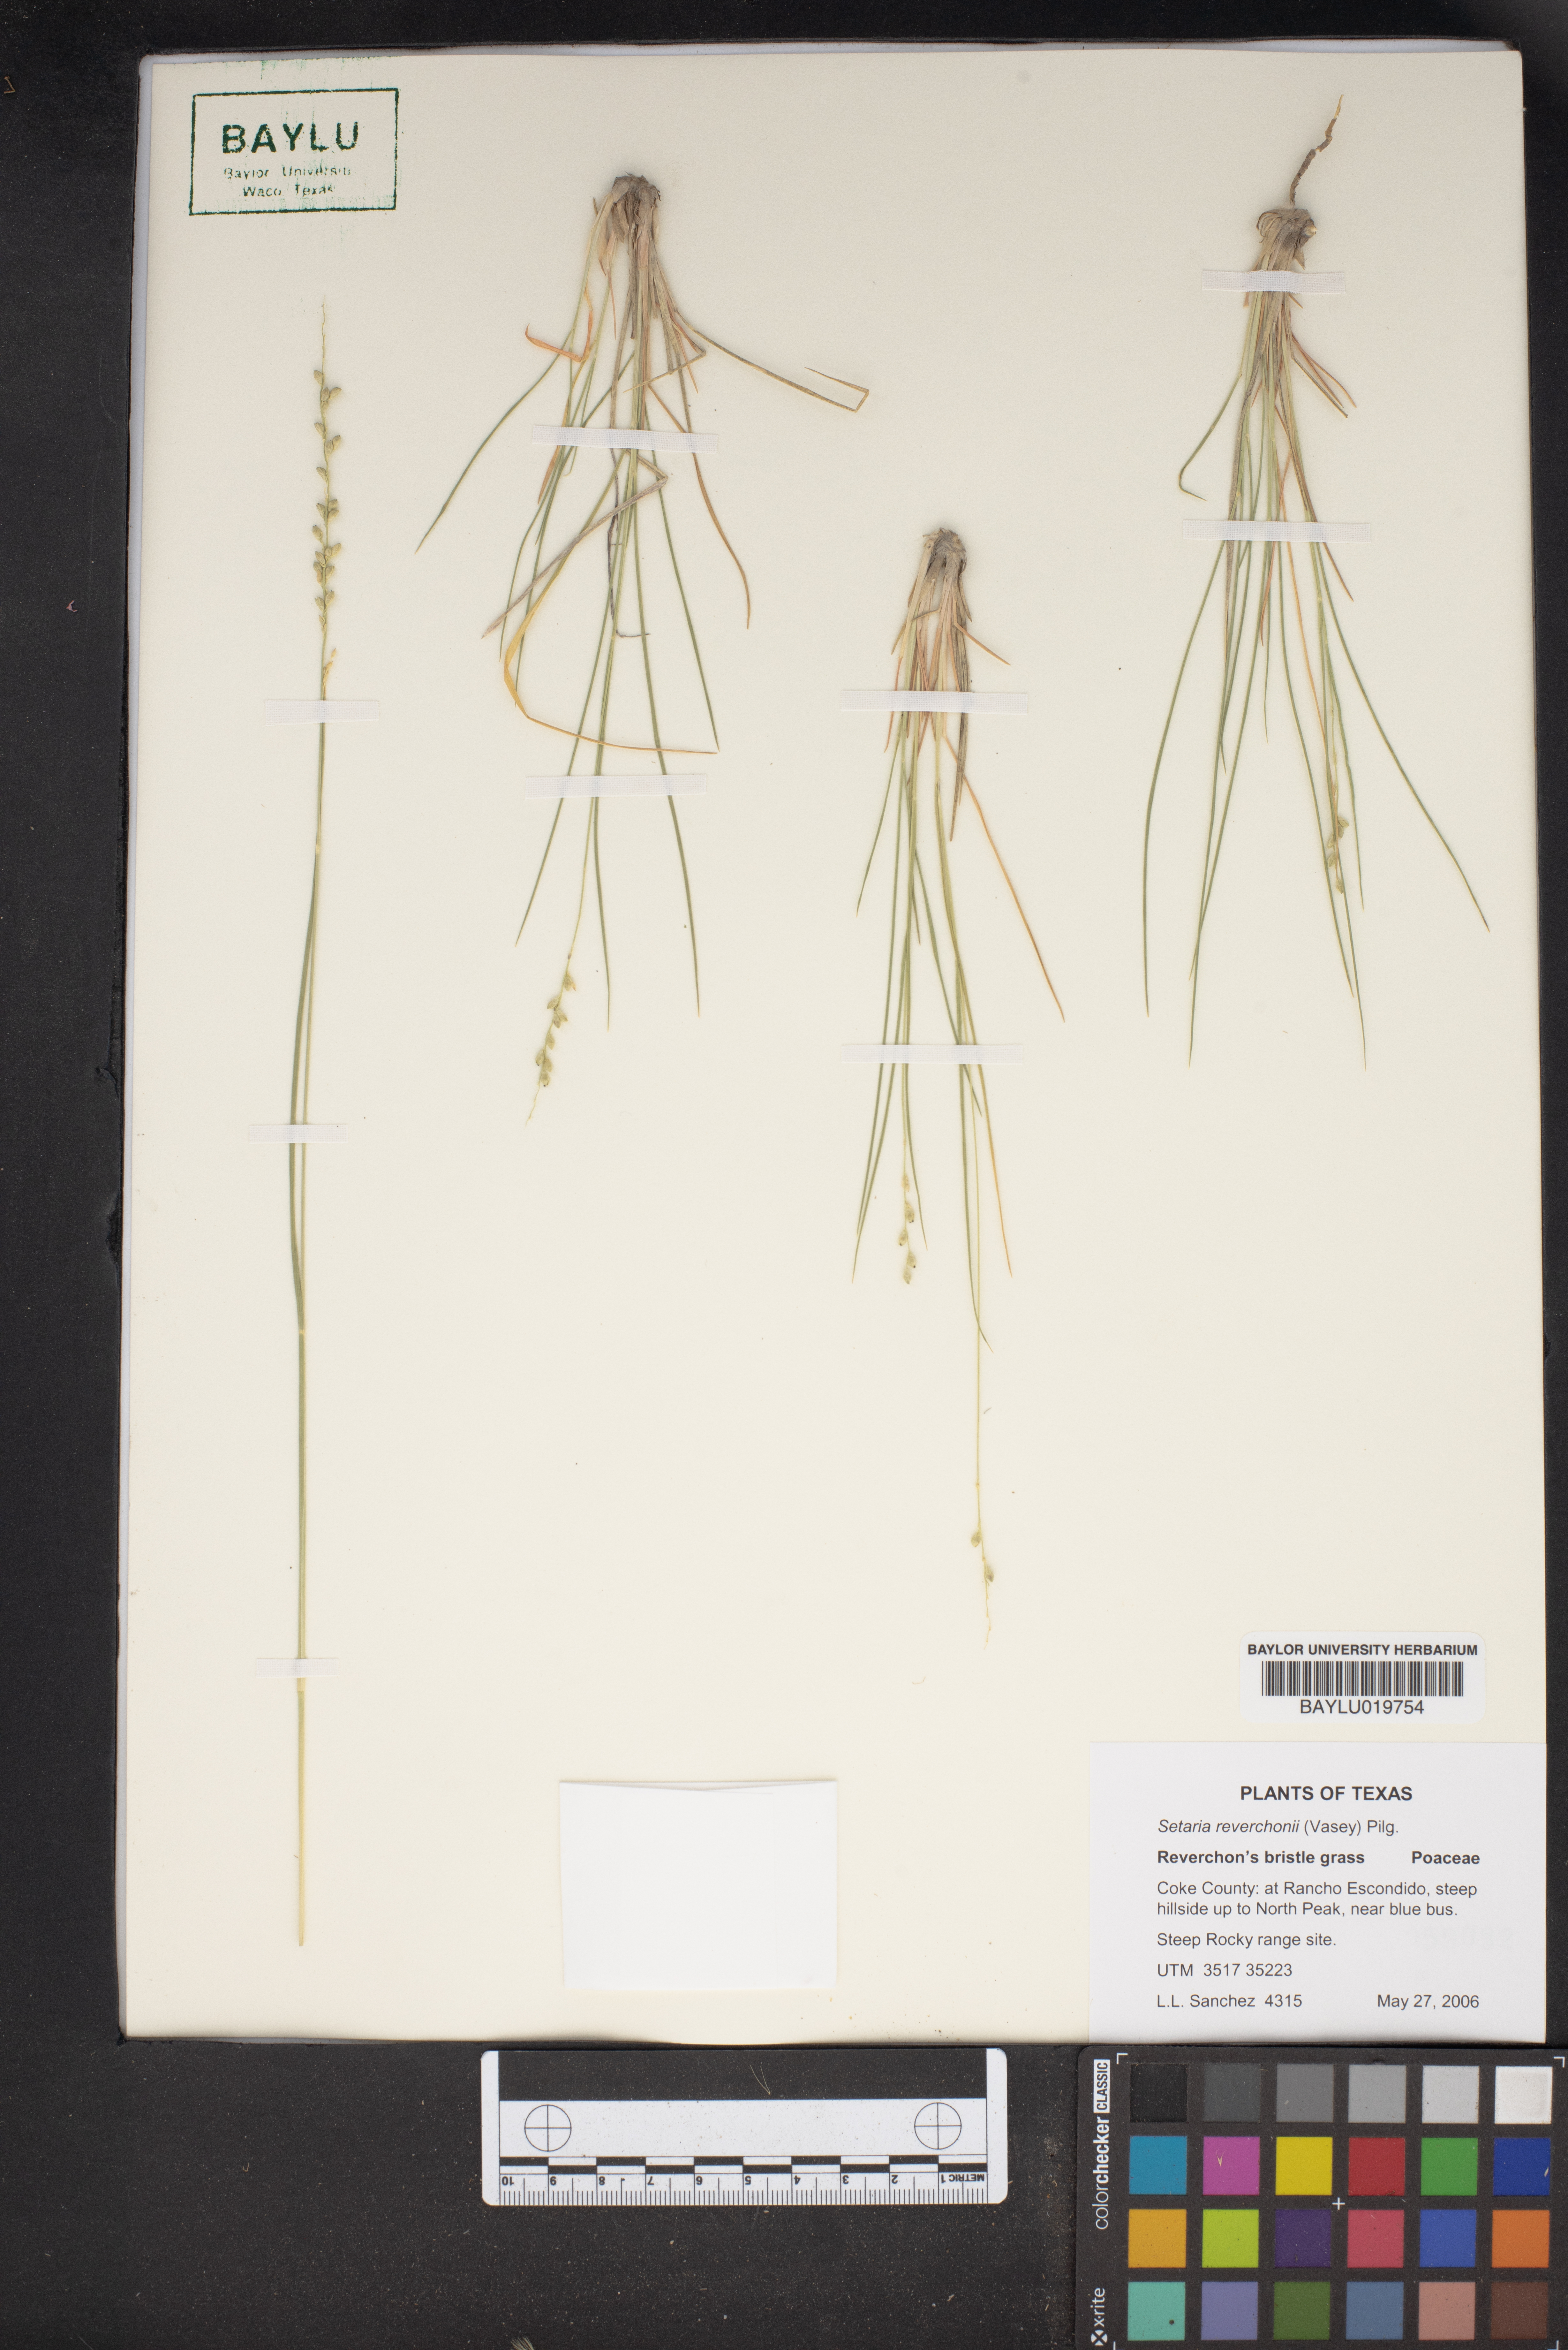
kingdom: Plantae
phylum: Tracheophyta
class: Liliopsida
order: Poales
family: Poaceae
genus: Setaria
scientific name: Setaria reverchonii
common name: Reverchon's bristle grass
